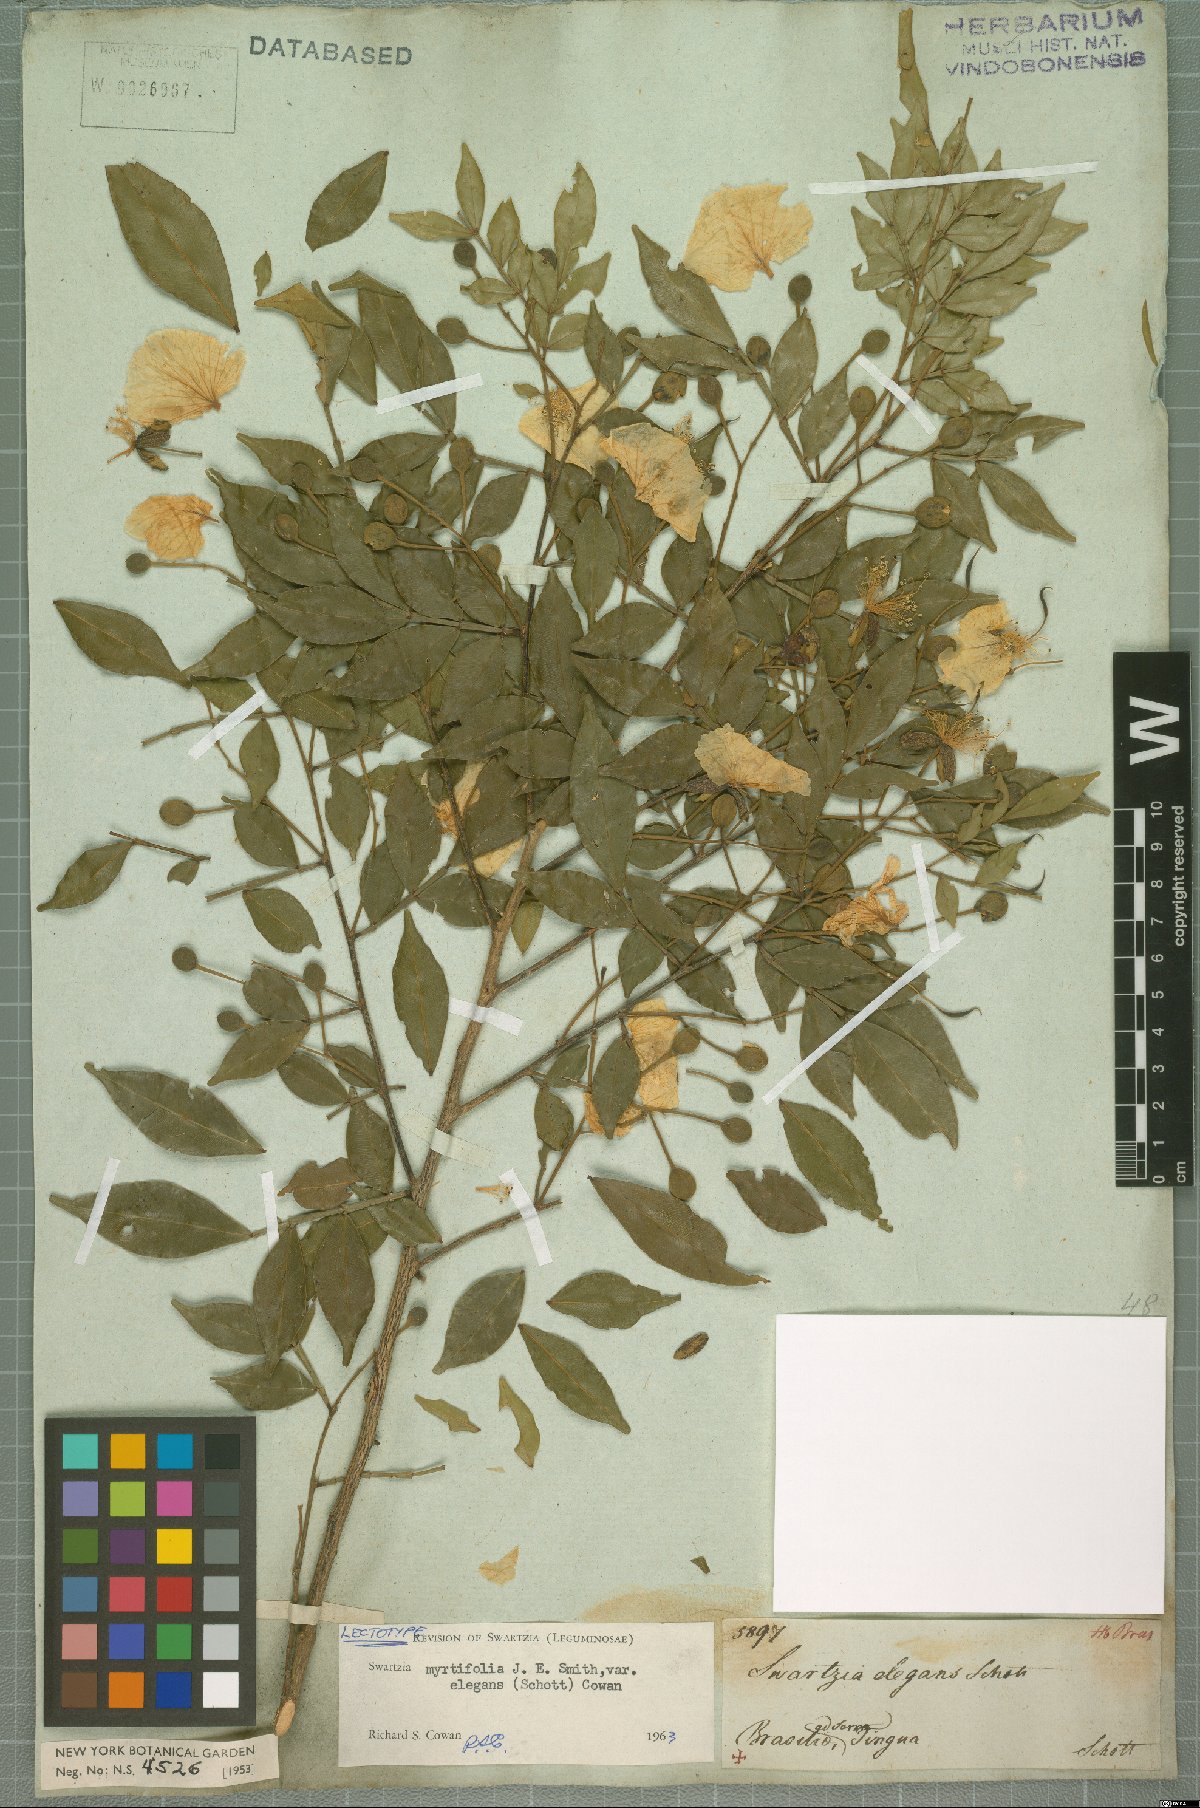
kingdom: Plantae
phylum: Tracheophyta
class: Magnoliopsida
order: Fabales
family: Fabaceae
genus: Swartzia
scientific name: Swartzia myrtifolia
